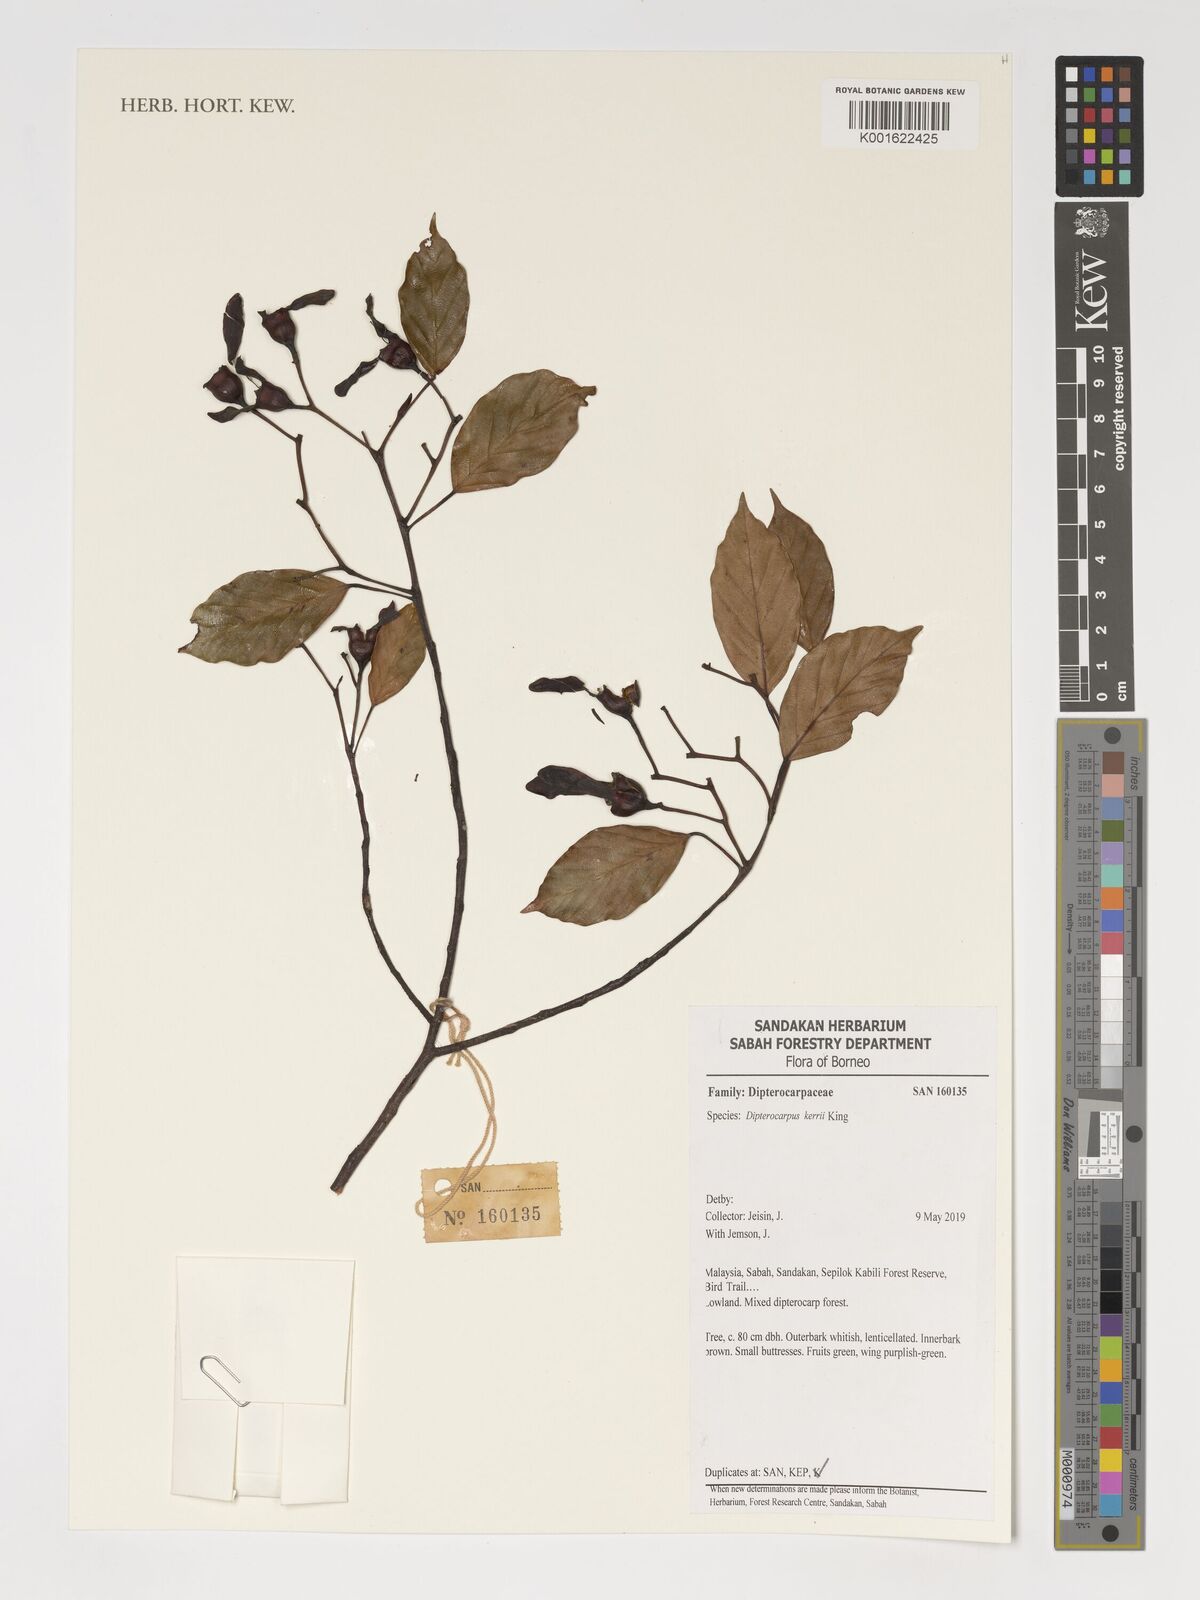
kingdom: Plantae
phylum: Tracheophyta
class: Magnoliopsida
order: Malvales
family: Dipterocarpaceae
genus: Dipterocarpus
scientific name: Dipterocarpus kerrii
